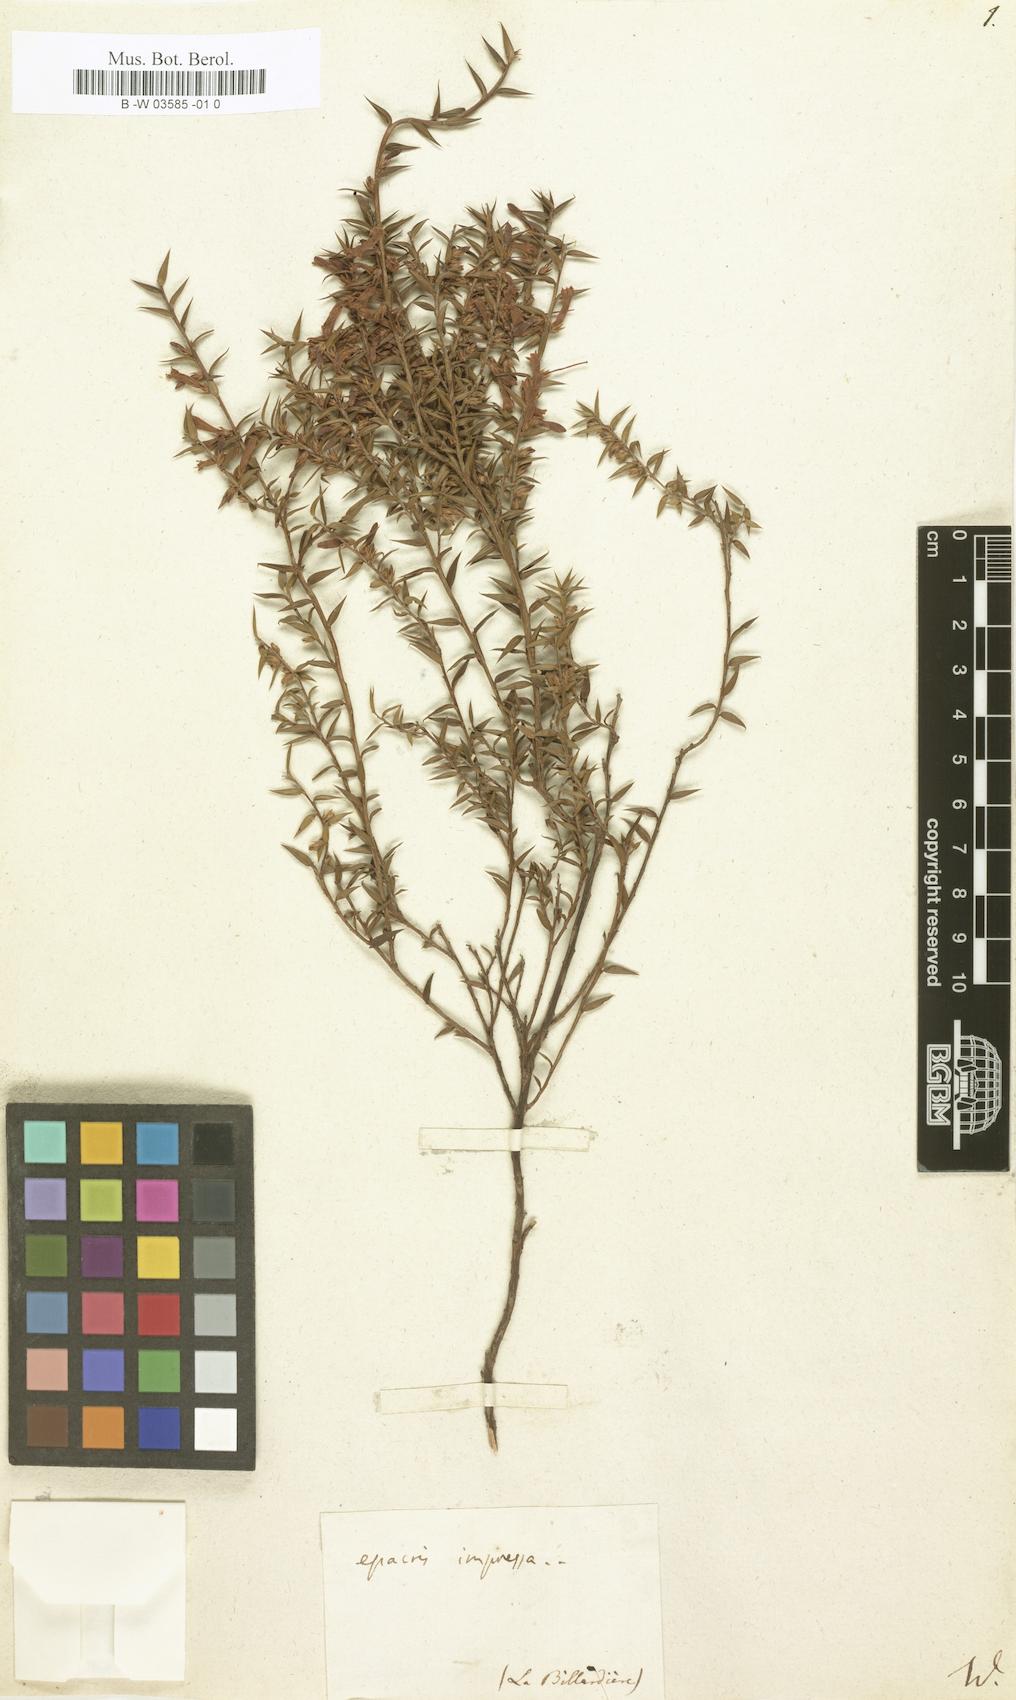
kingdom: Plantae
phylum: Tracheophyta
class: Magnoliopsida
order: Ericales
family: Ericaceae
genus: Epacris
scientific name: Epacris impressa
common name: Common-heath
